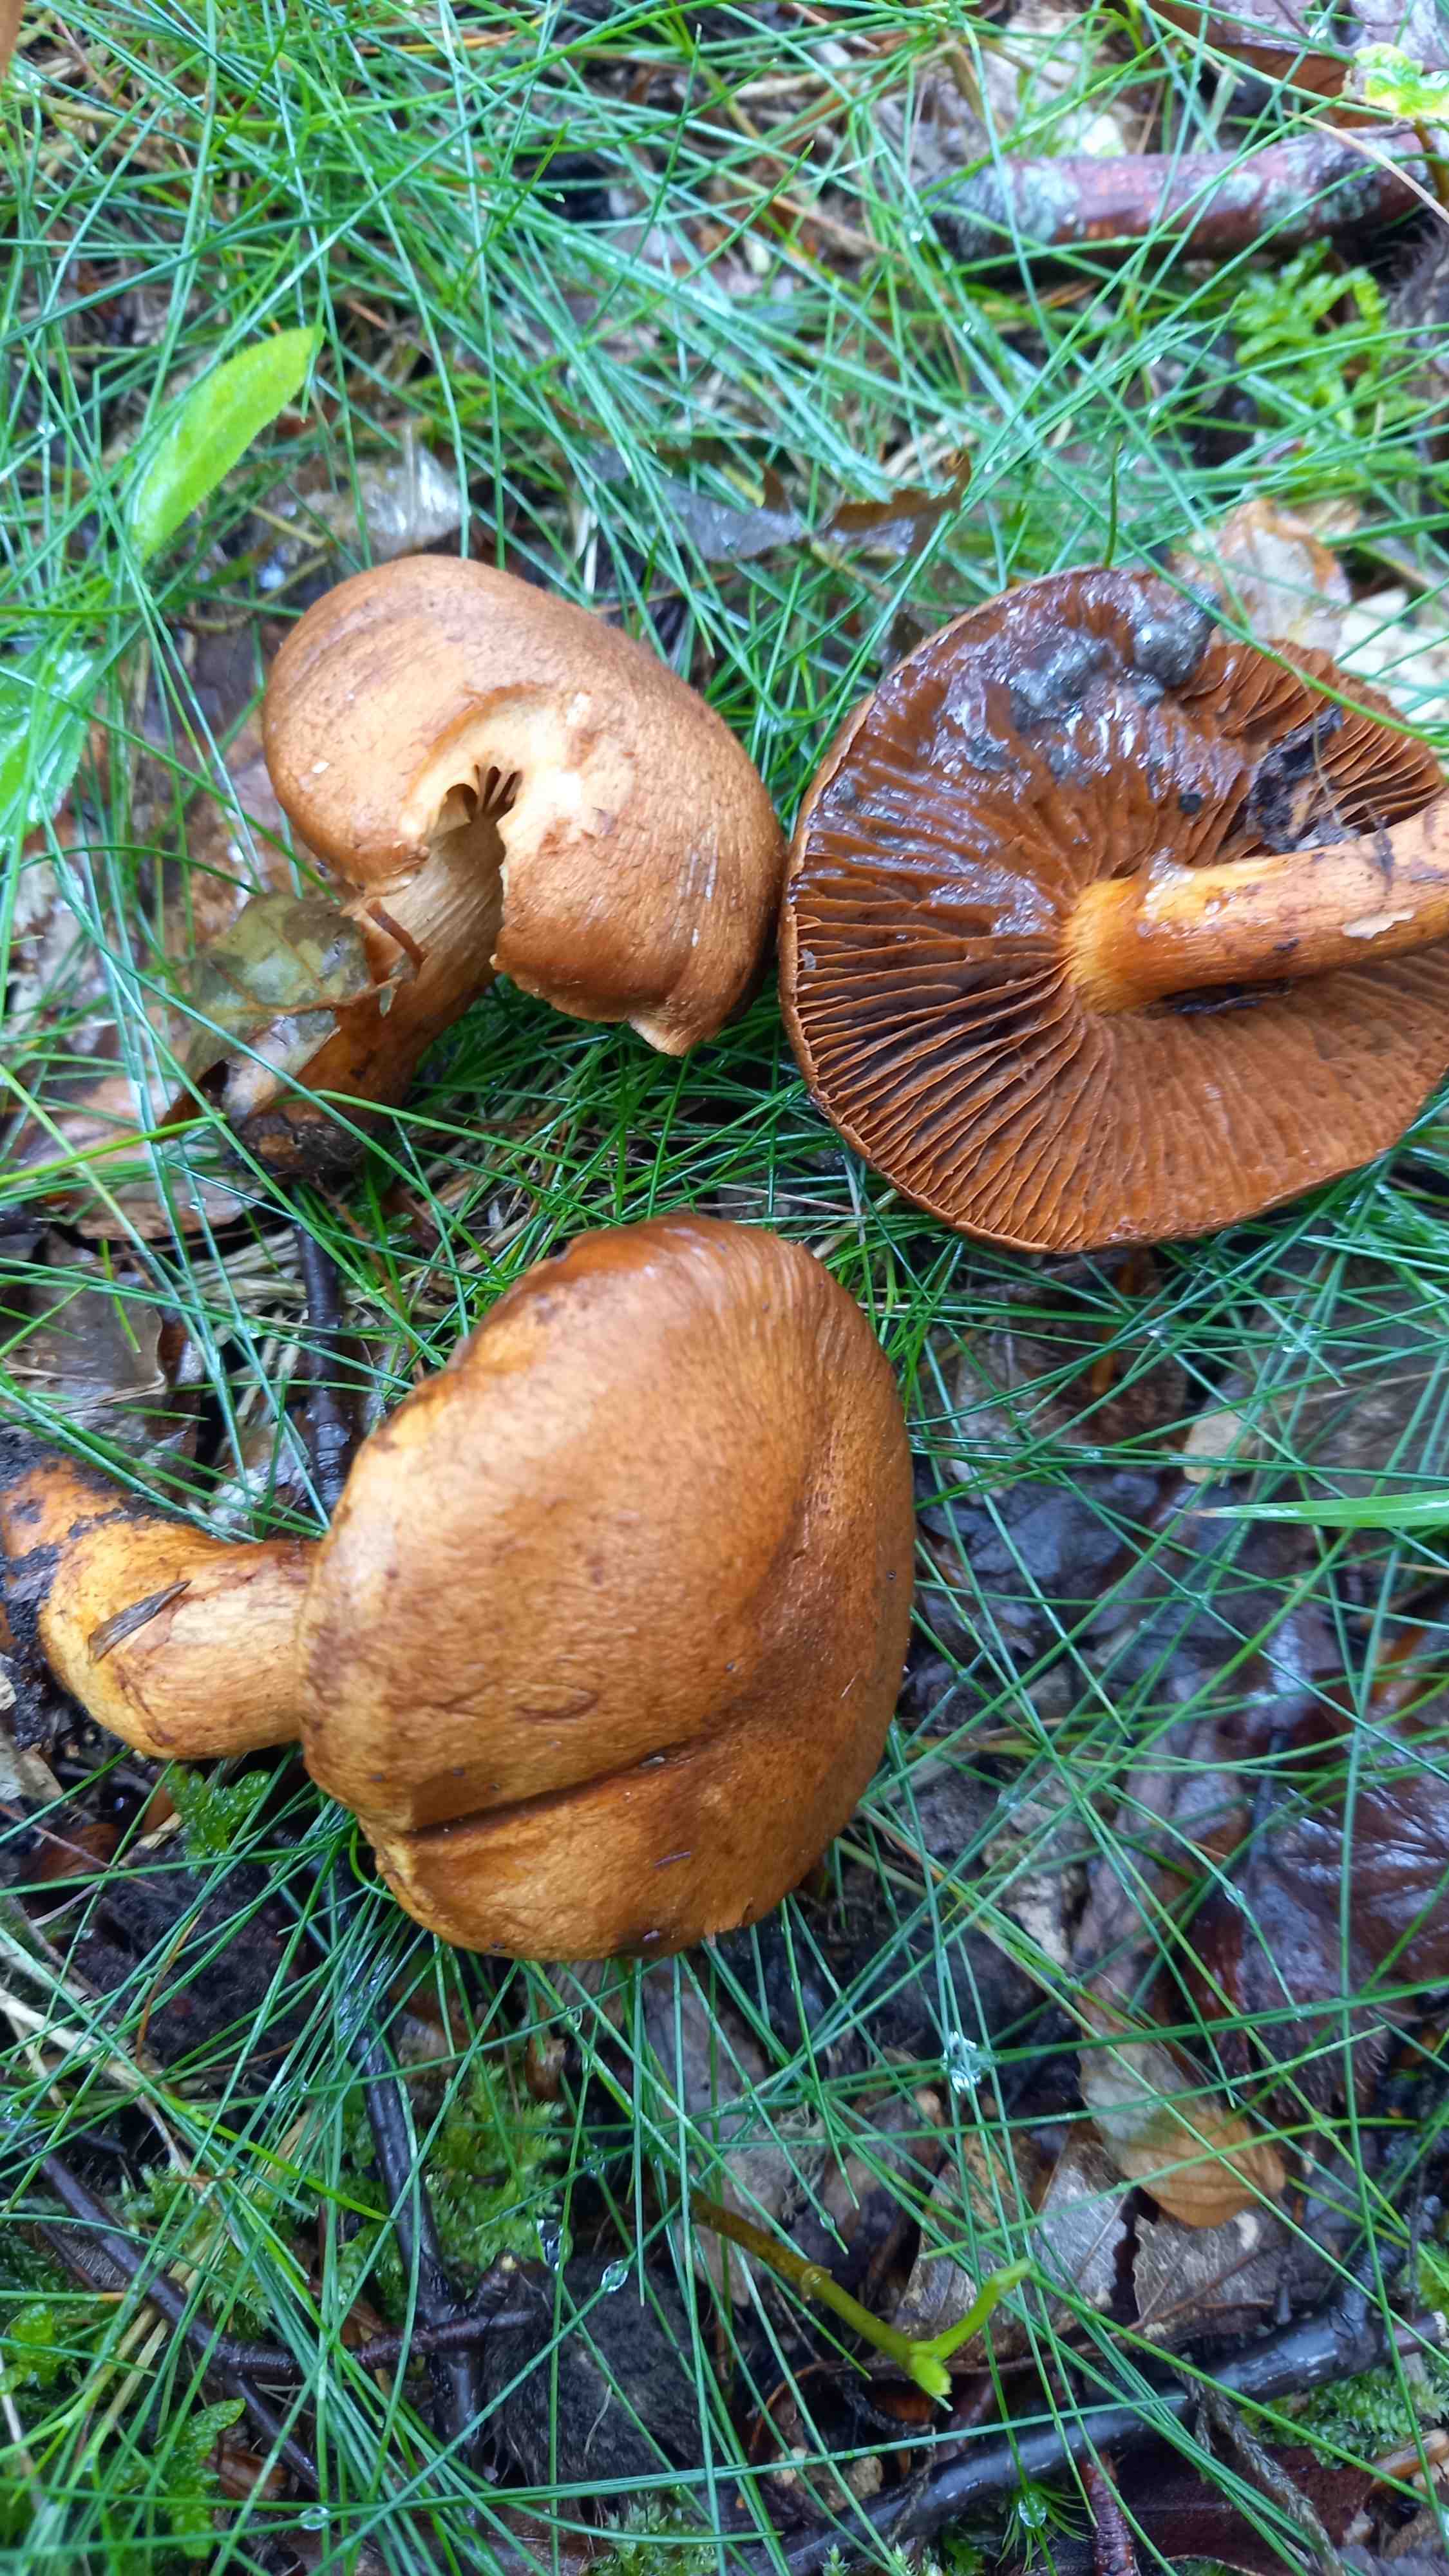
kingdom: Fungi
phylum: Basidiomycota
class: Agaricomycetes
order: Agaricales
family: Cortinariaceae
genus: Cortinarius
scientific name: Cortinarius subcotoneus
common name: gyldenbladet slørhat
